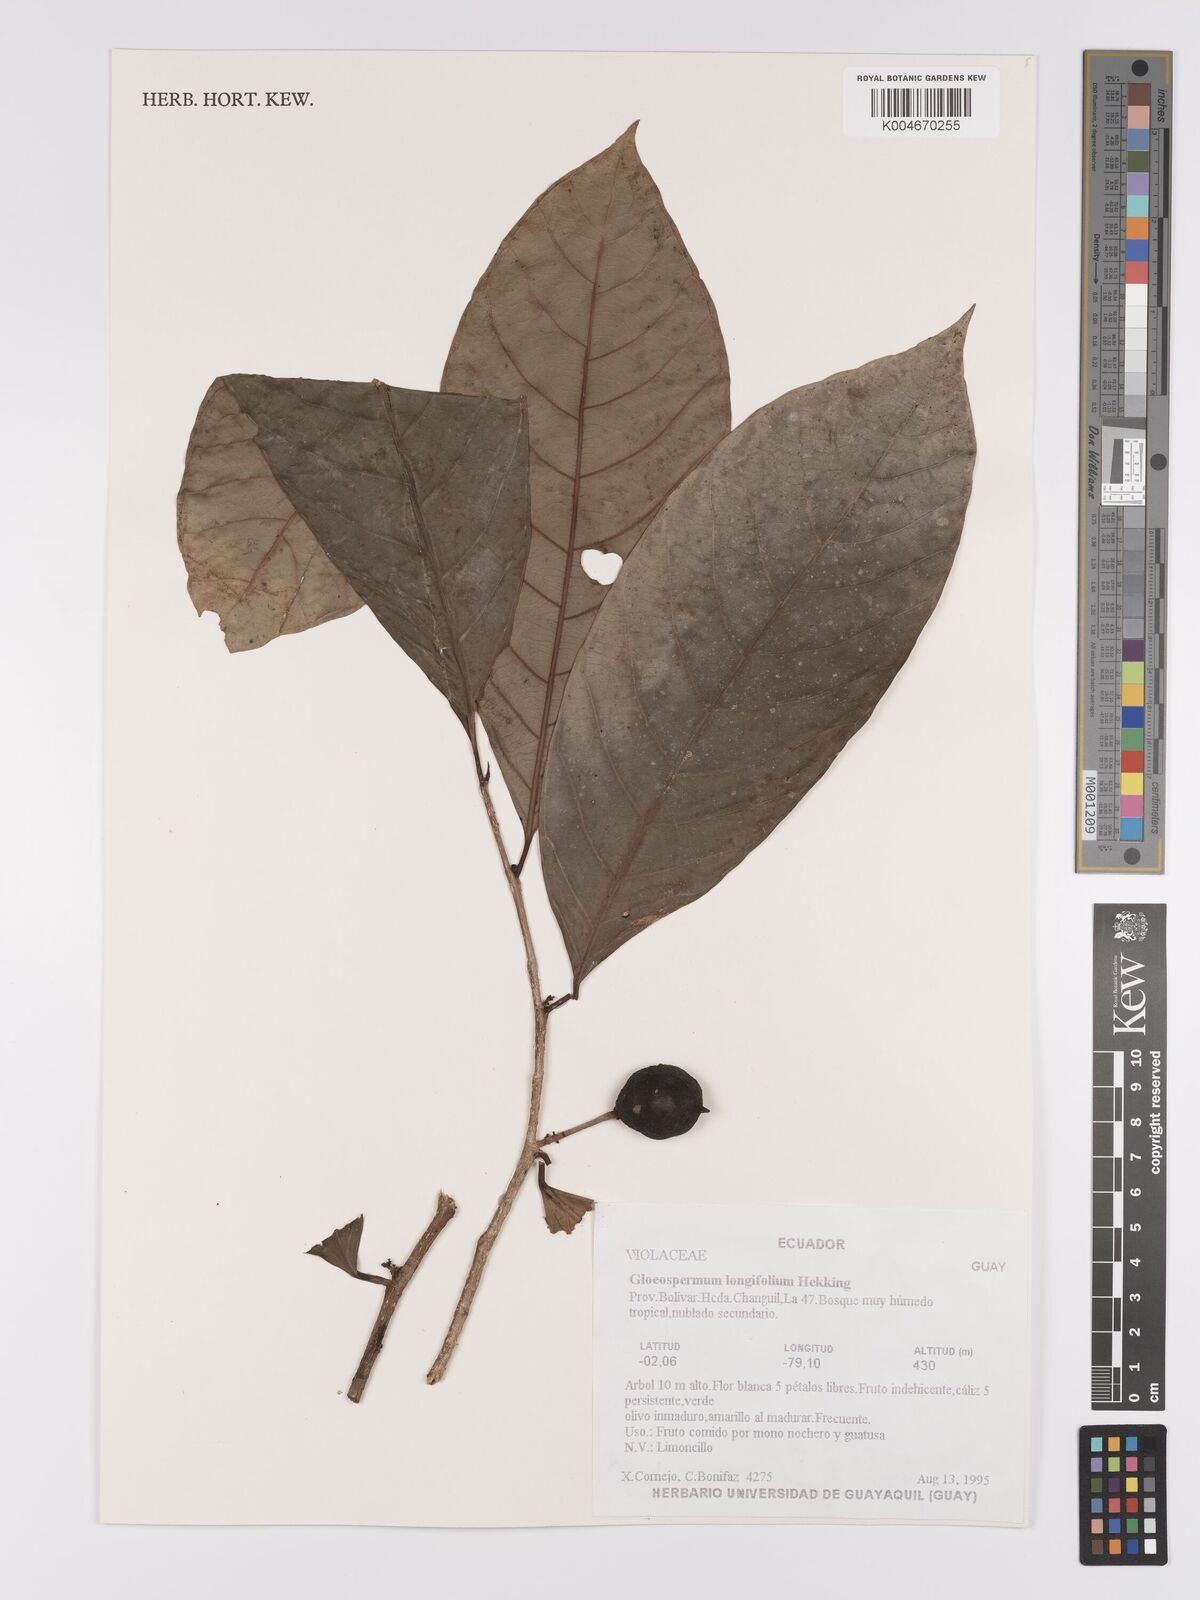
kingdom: Plantae
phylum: Tracheophyta
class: Magnoliopsida
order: Malpighiales
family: Violaceae
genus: Gloeospermum
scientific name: Gloeospermum longifolium
